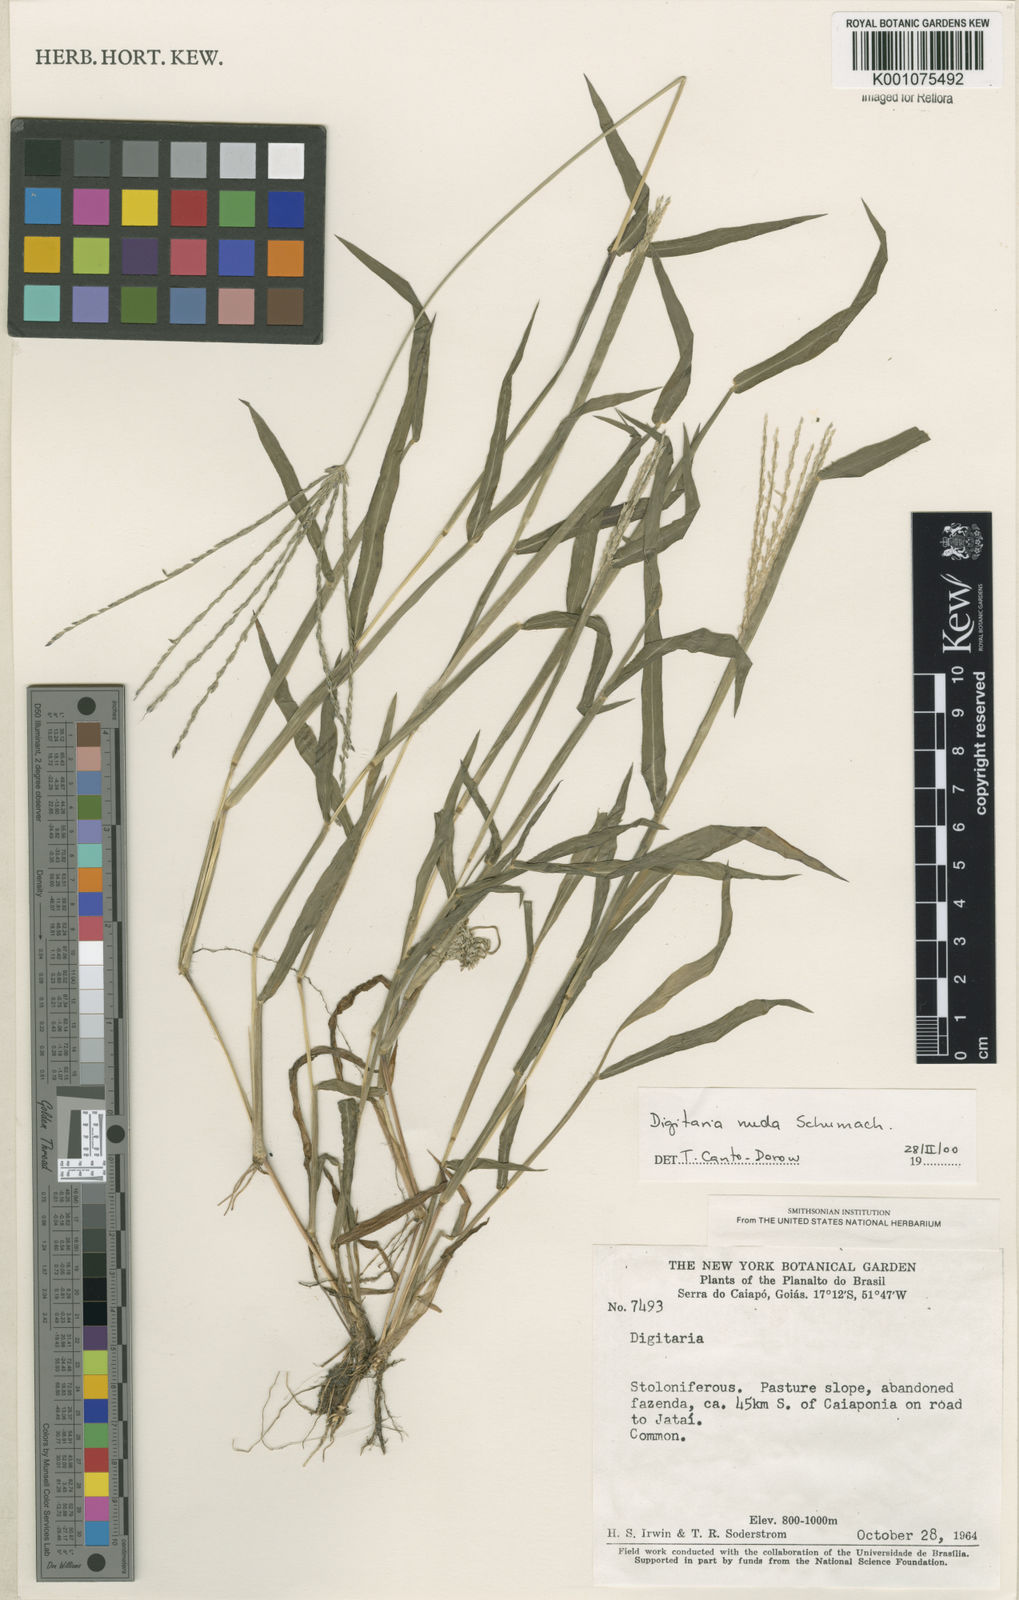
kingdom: Plantae
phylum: Tracheophyta
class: Liliopsida
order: Poales
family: Poaceae
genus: Digitaria
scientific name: Digitaria nuda
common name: Naked crabgrass
